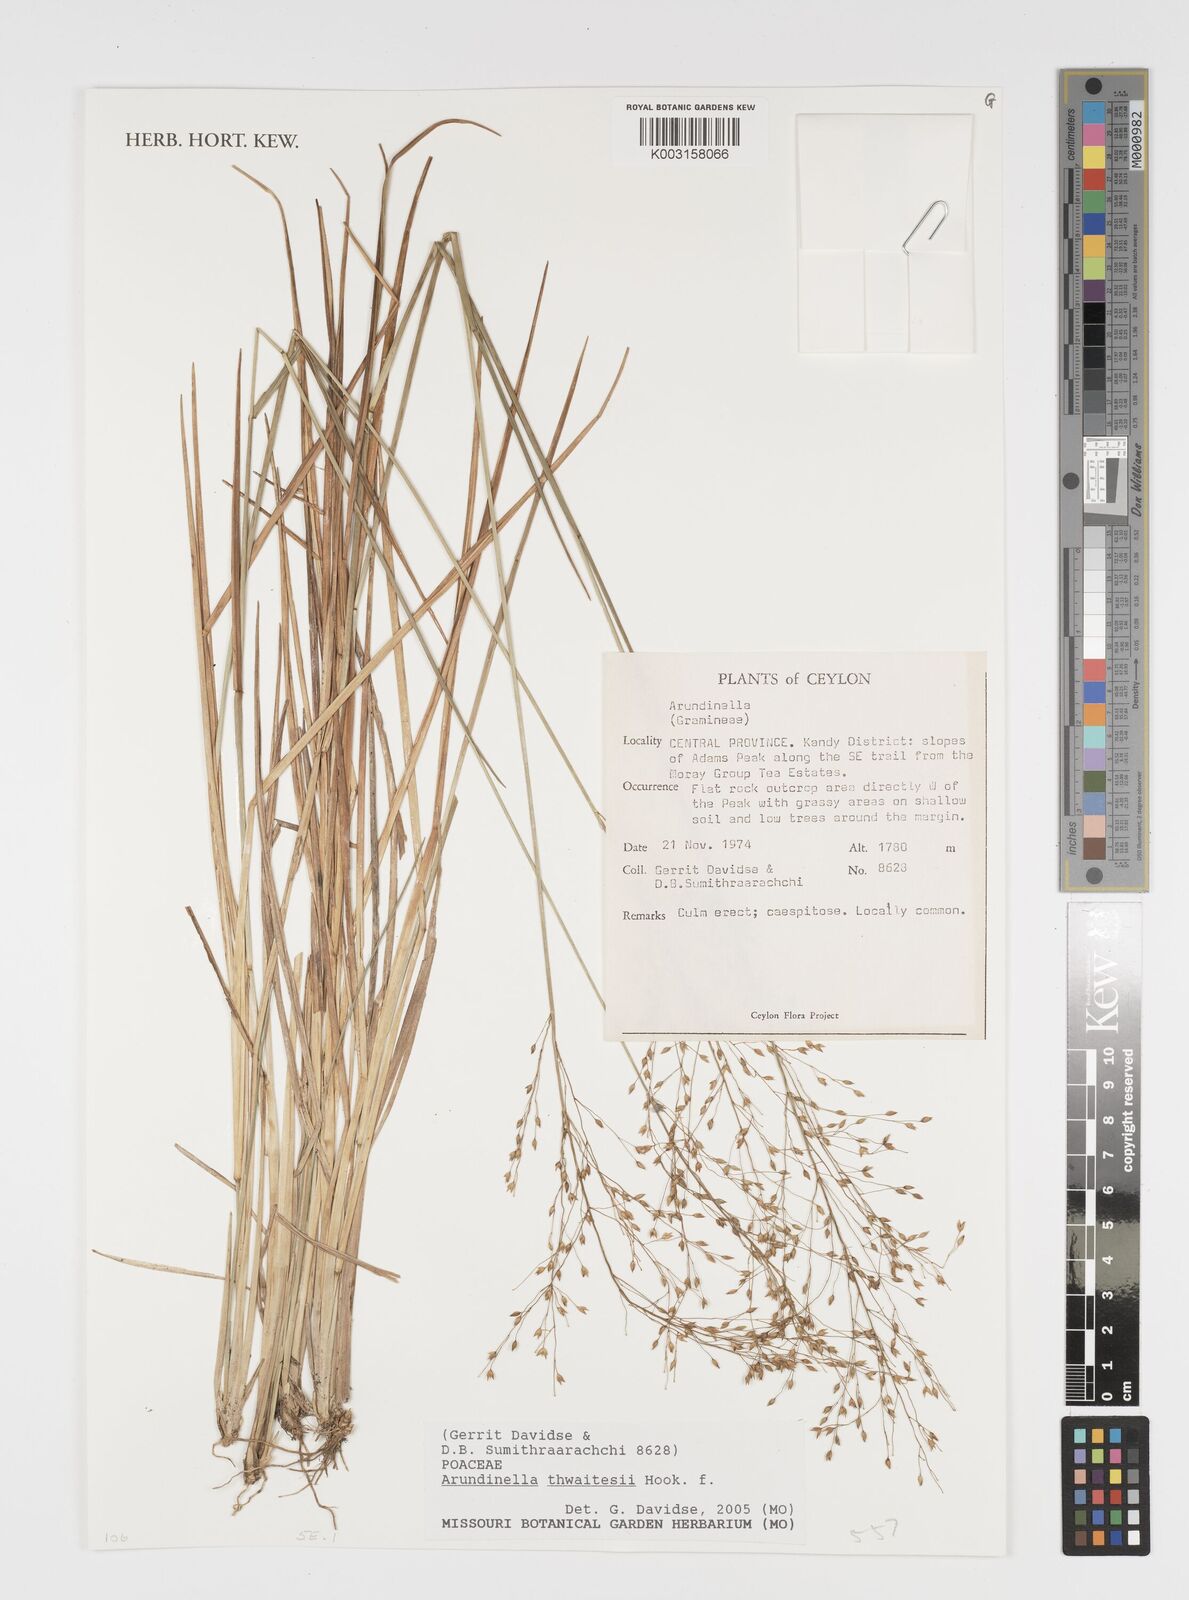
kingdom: Plantae
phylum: Tracheophyta
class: Liliopsida
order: Poales
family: Poaceae
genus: Arundinella
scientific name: Arundinella thwaitesii
